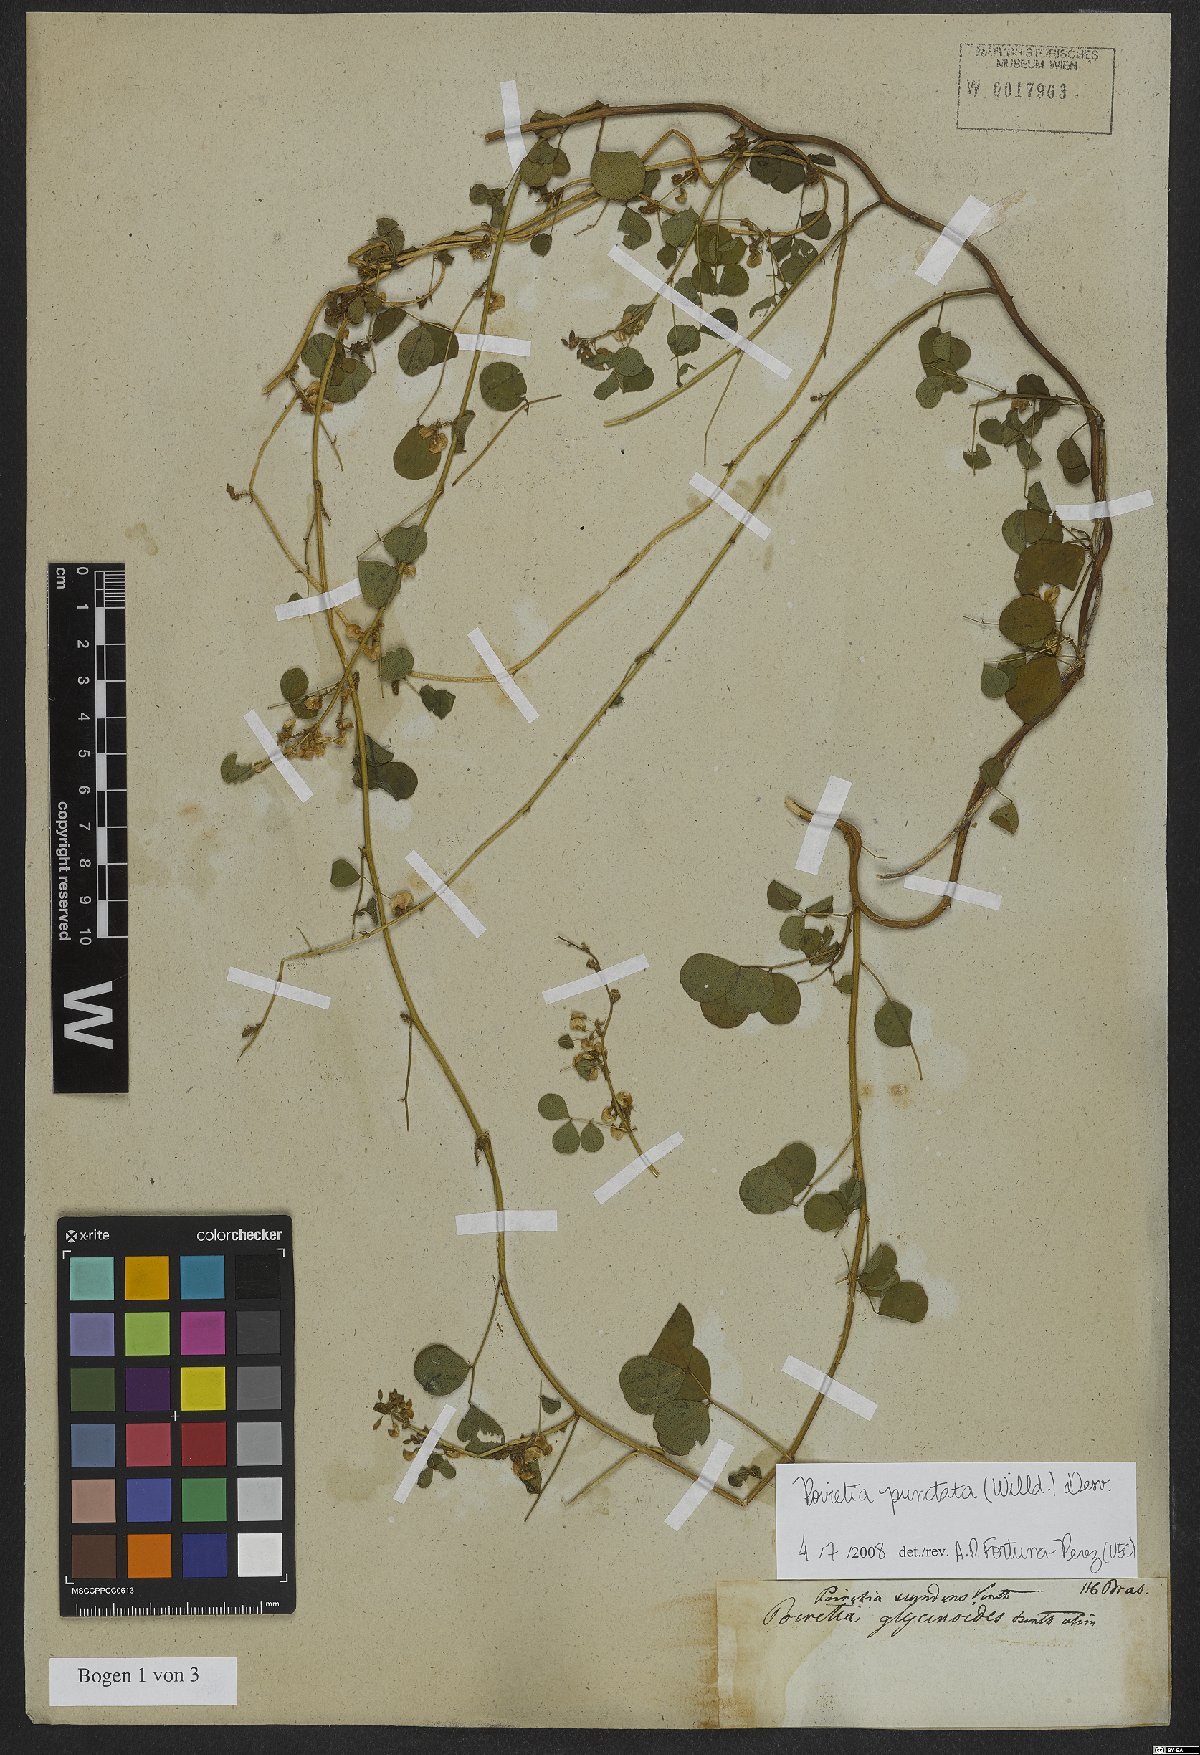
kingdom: Plantae
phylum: Tracheophyta
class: Magnoliopsida
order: Fabales
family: Fabaceae
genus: Poiretia
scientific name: Poiretia punctata
